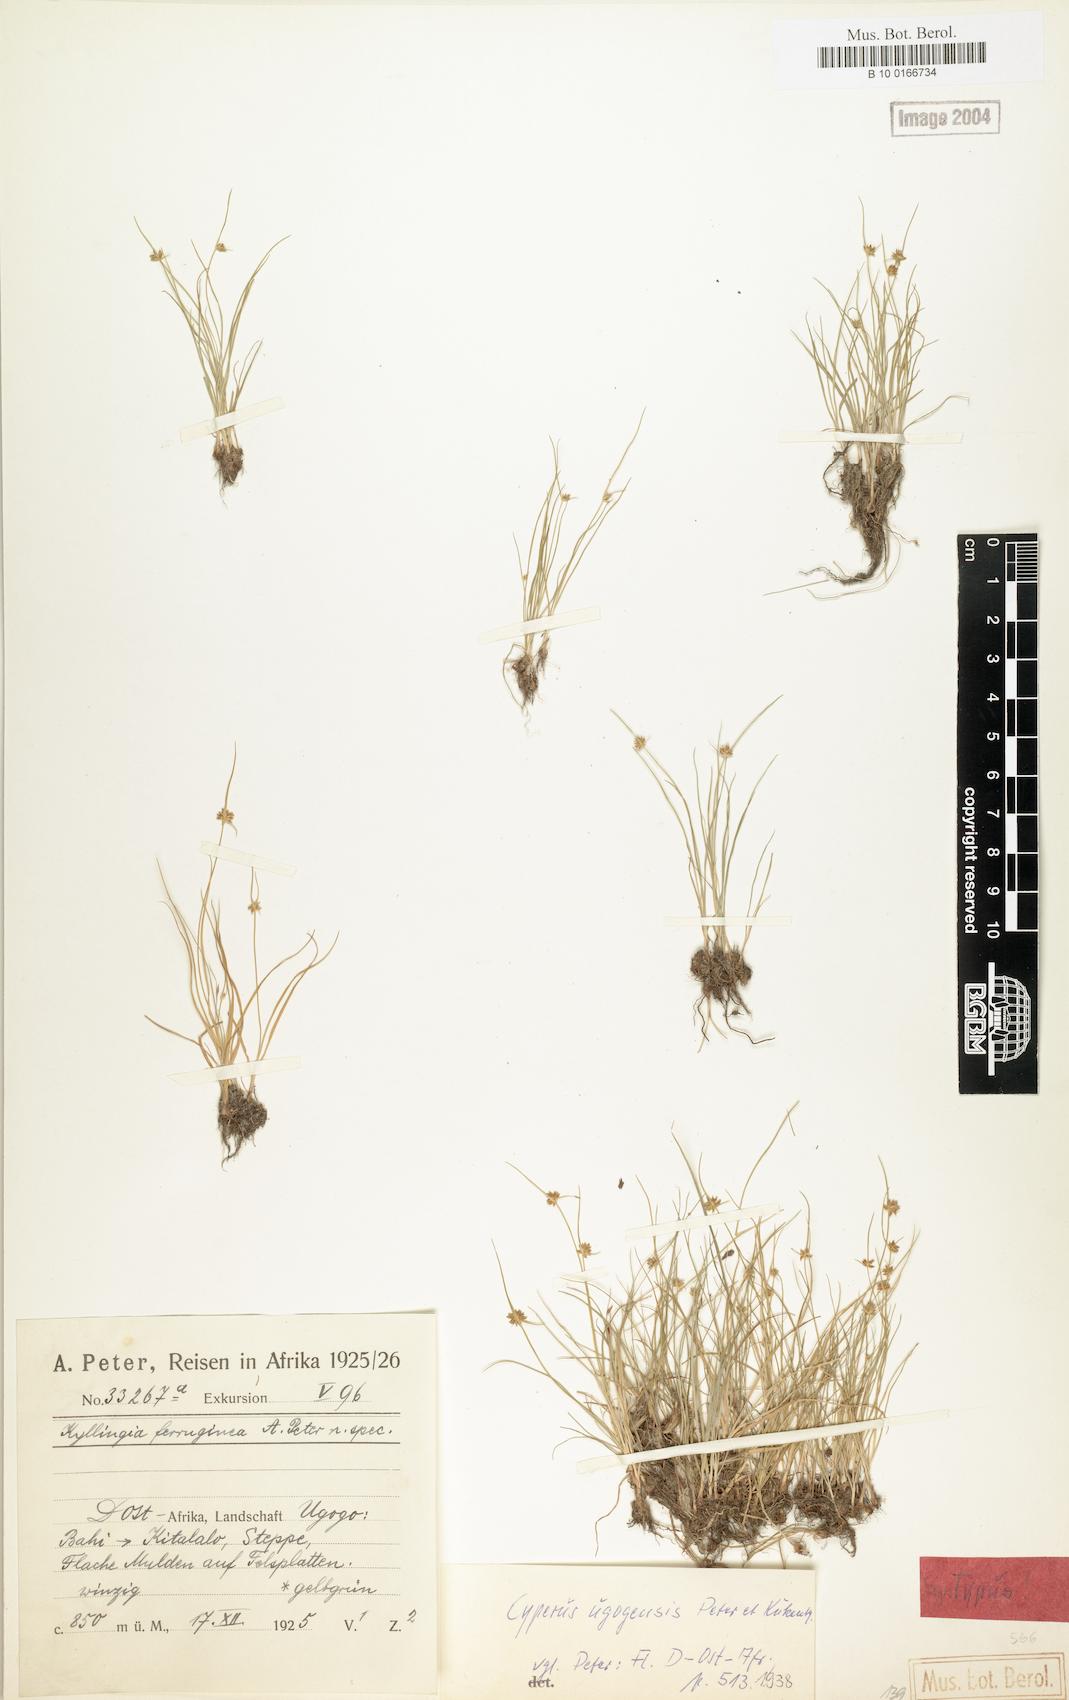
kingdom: Plantae
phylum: Tracheophyta
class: Liliopsida
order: Poales
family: Cyperaceae
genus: Cyperus
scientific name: Cyperus ugogensis
